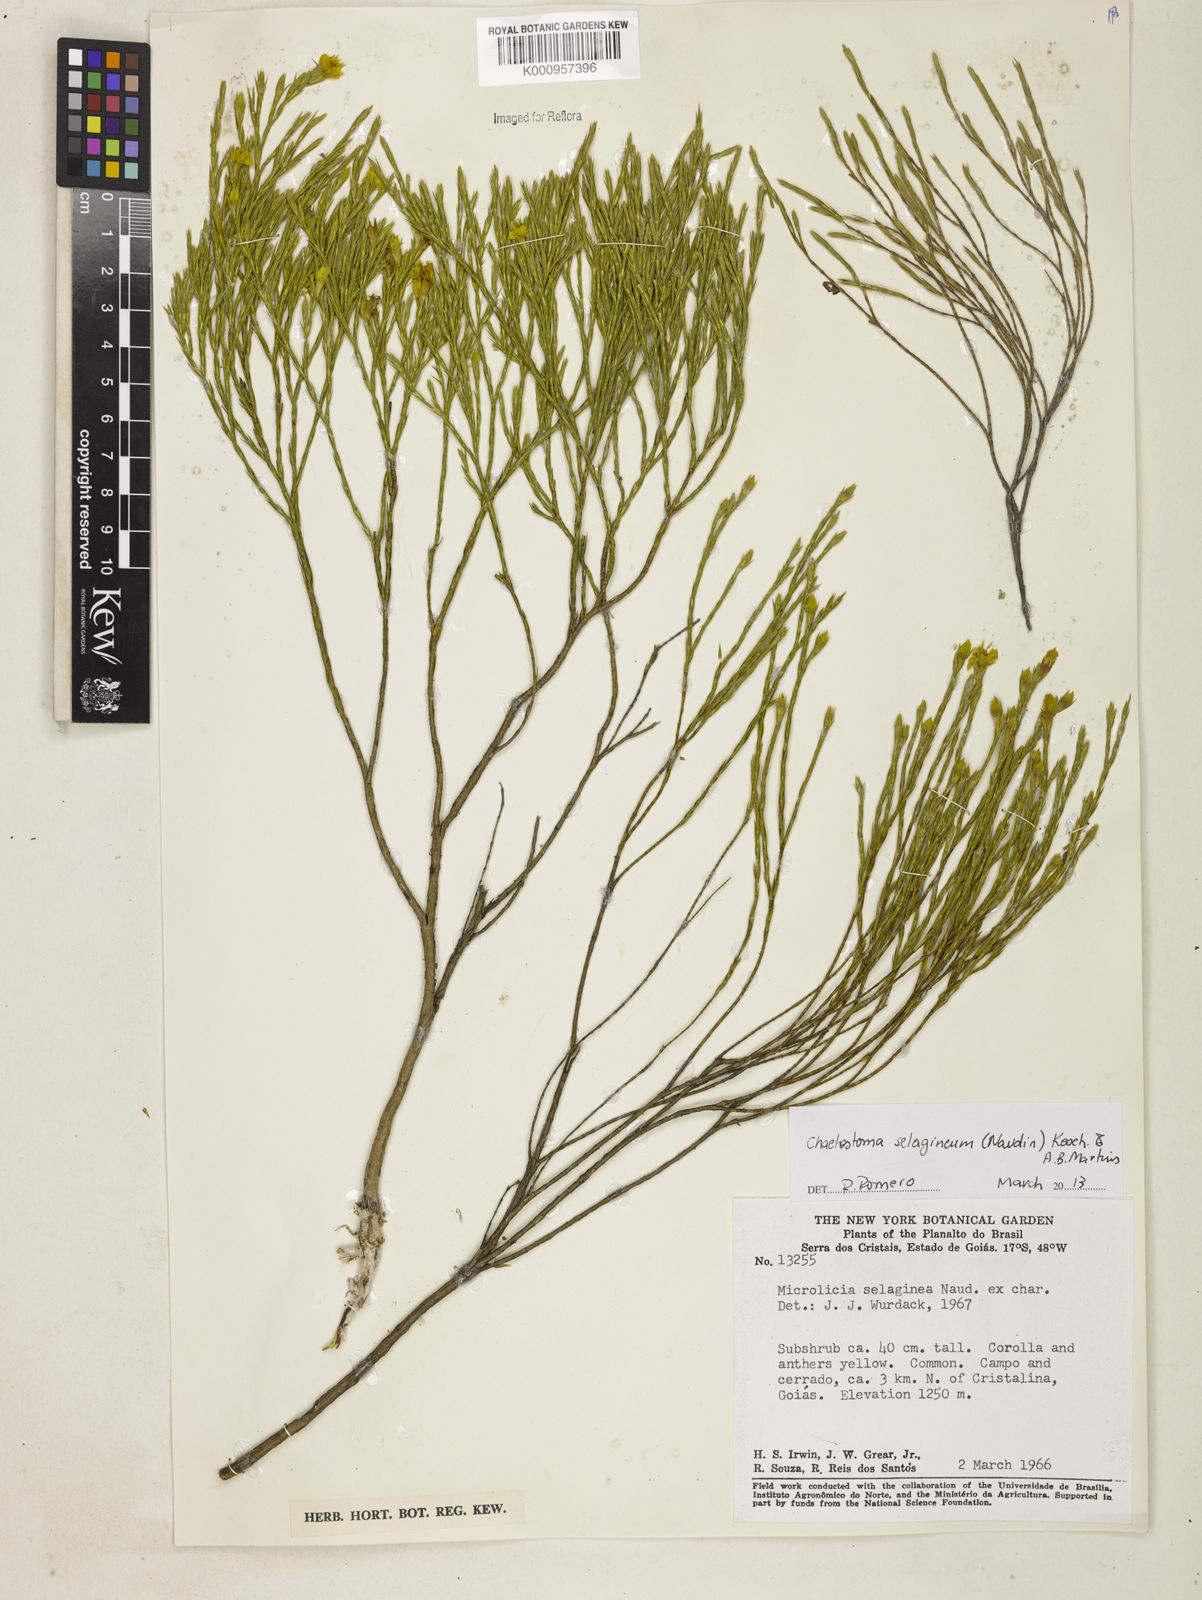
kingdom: Plantae
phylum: Tracheophyta
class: Magnoliopsida
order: Myrtales
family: Melastomataceae
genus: Microlicia
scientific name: Microlicia
